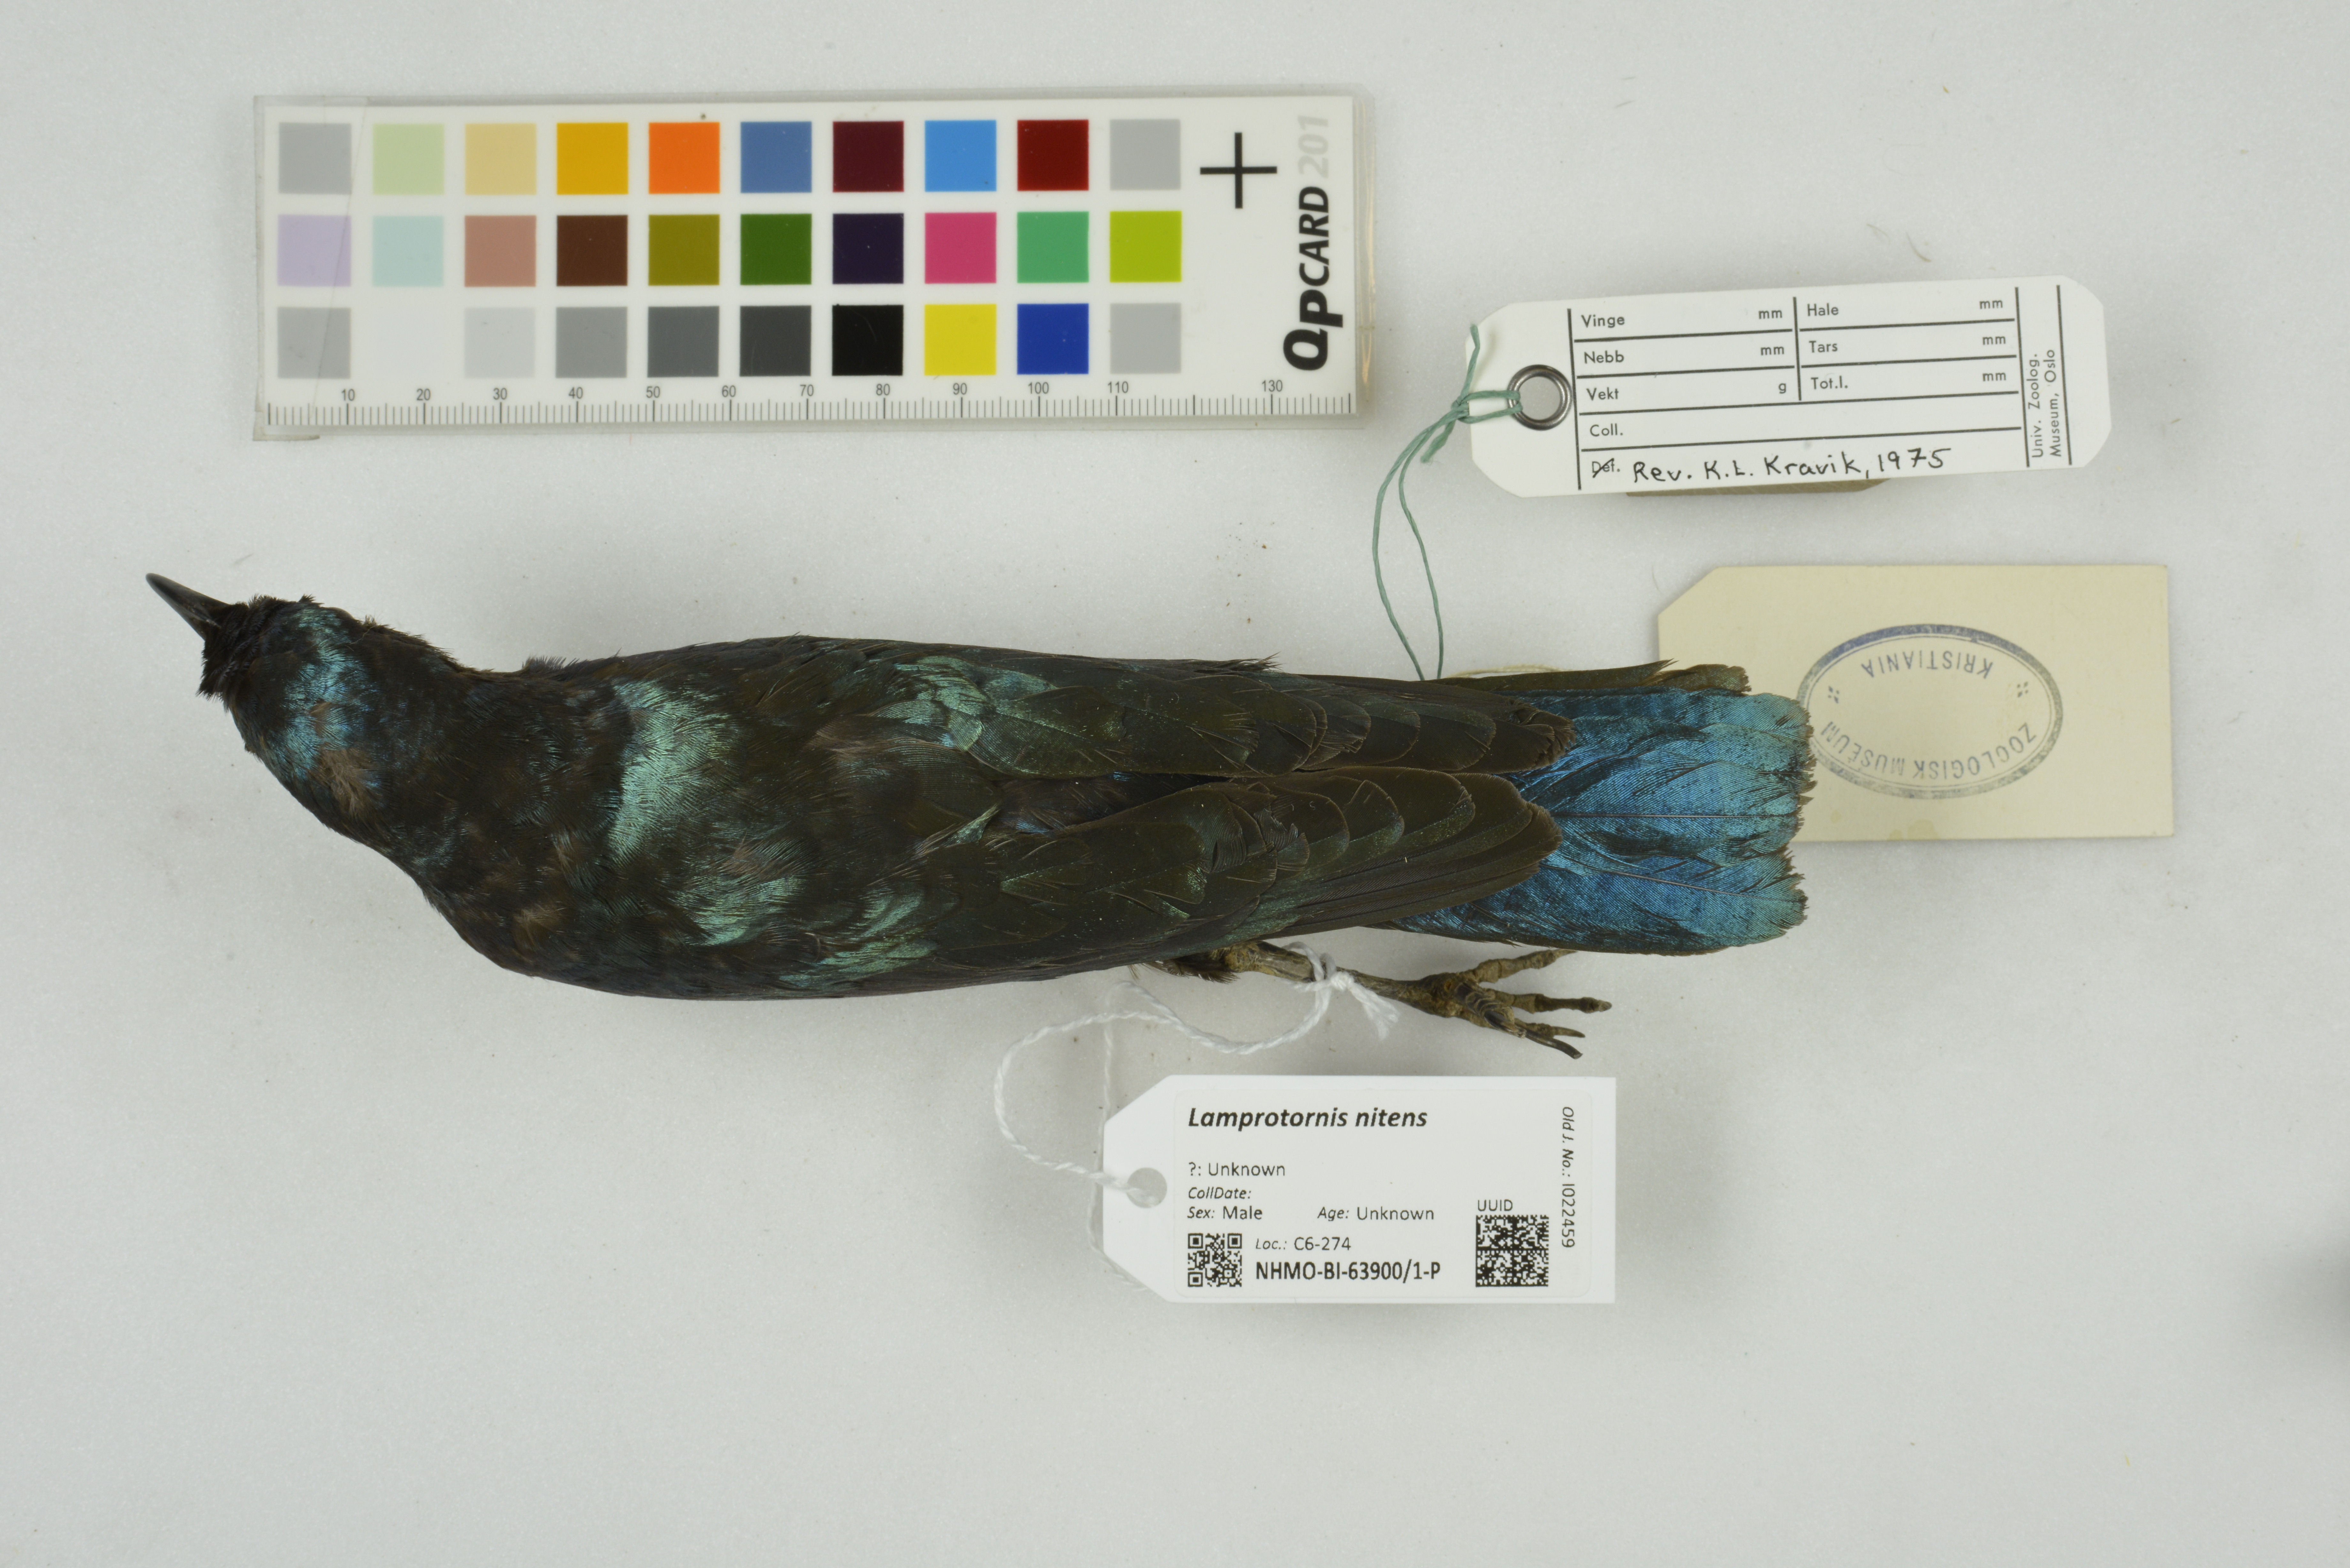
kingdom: Animalia
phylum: Chordata
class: Aves
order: Passeriformes
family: Sturnidae
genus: Lamprotornis
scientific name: Lamprotornis nitens
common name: Cape starling
